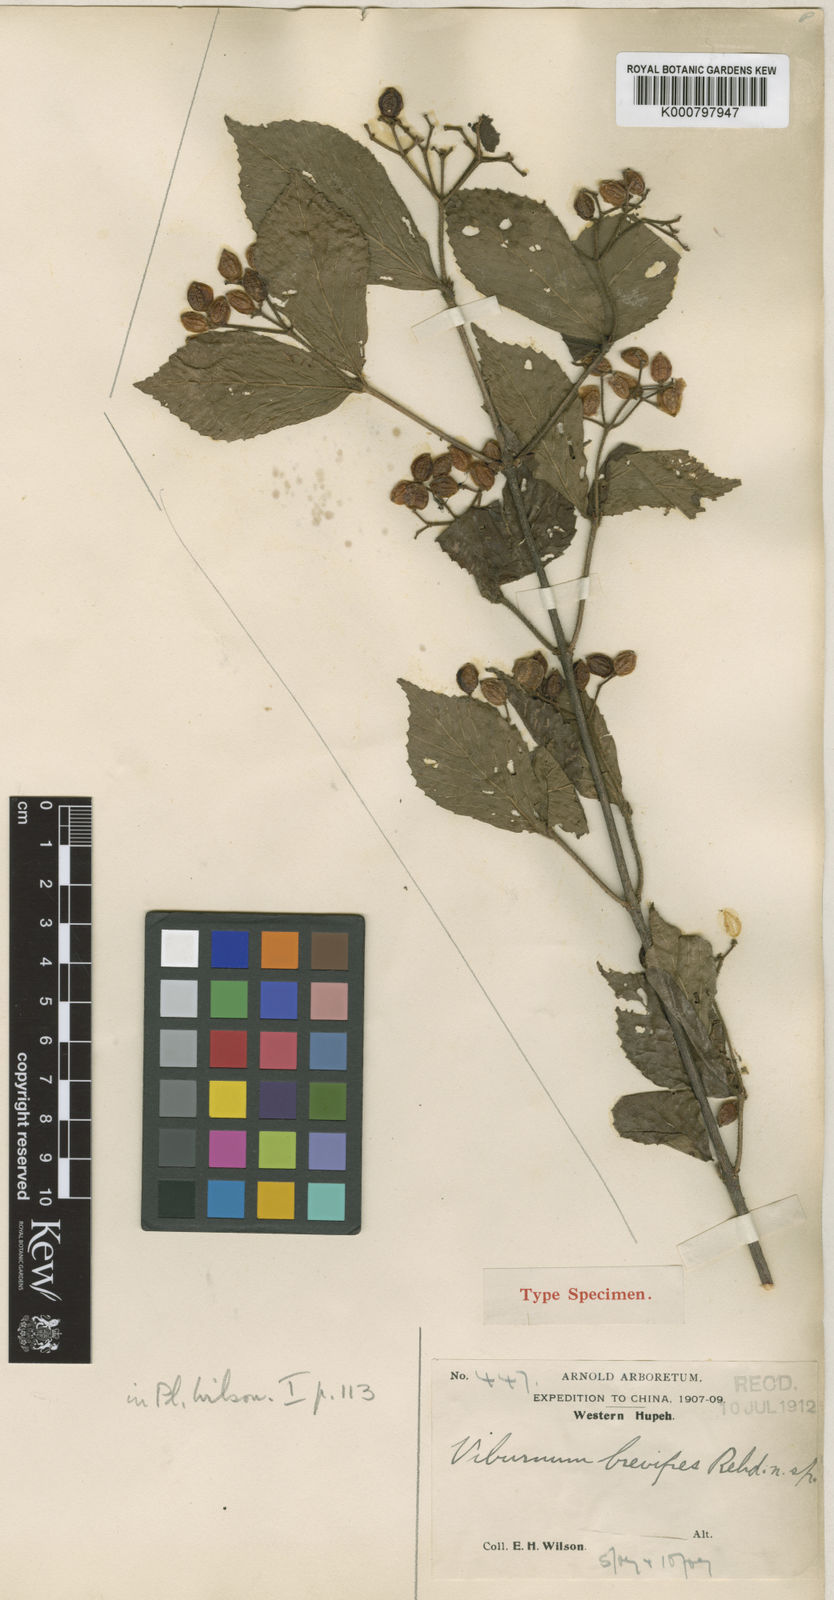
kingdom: Plantae
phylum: Tracheophyta
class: Magnoliopsida
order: Dipsacales
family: Viburnaceae
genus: Viburnum
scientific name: Viburnum dilatatum
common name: Linden arrowwood
